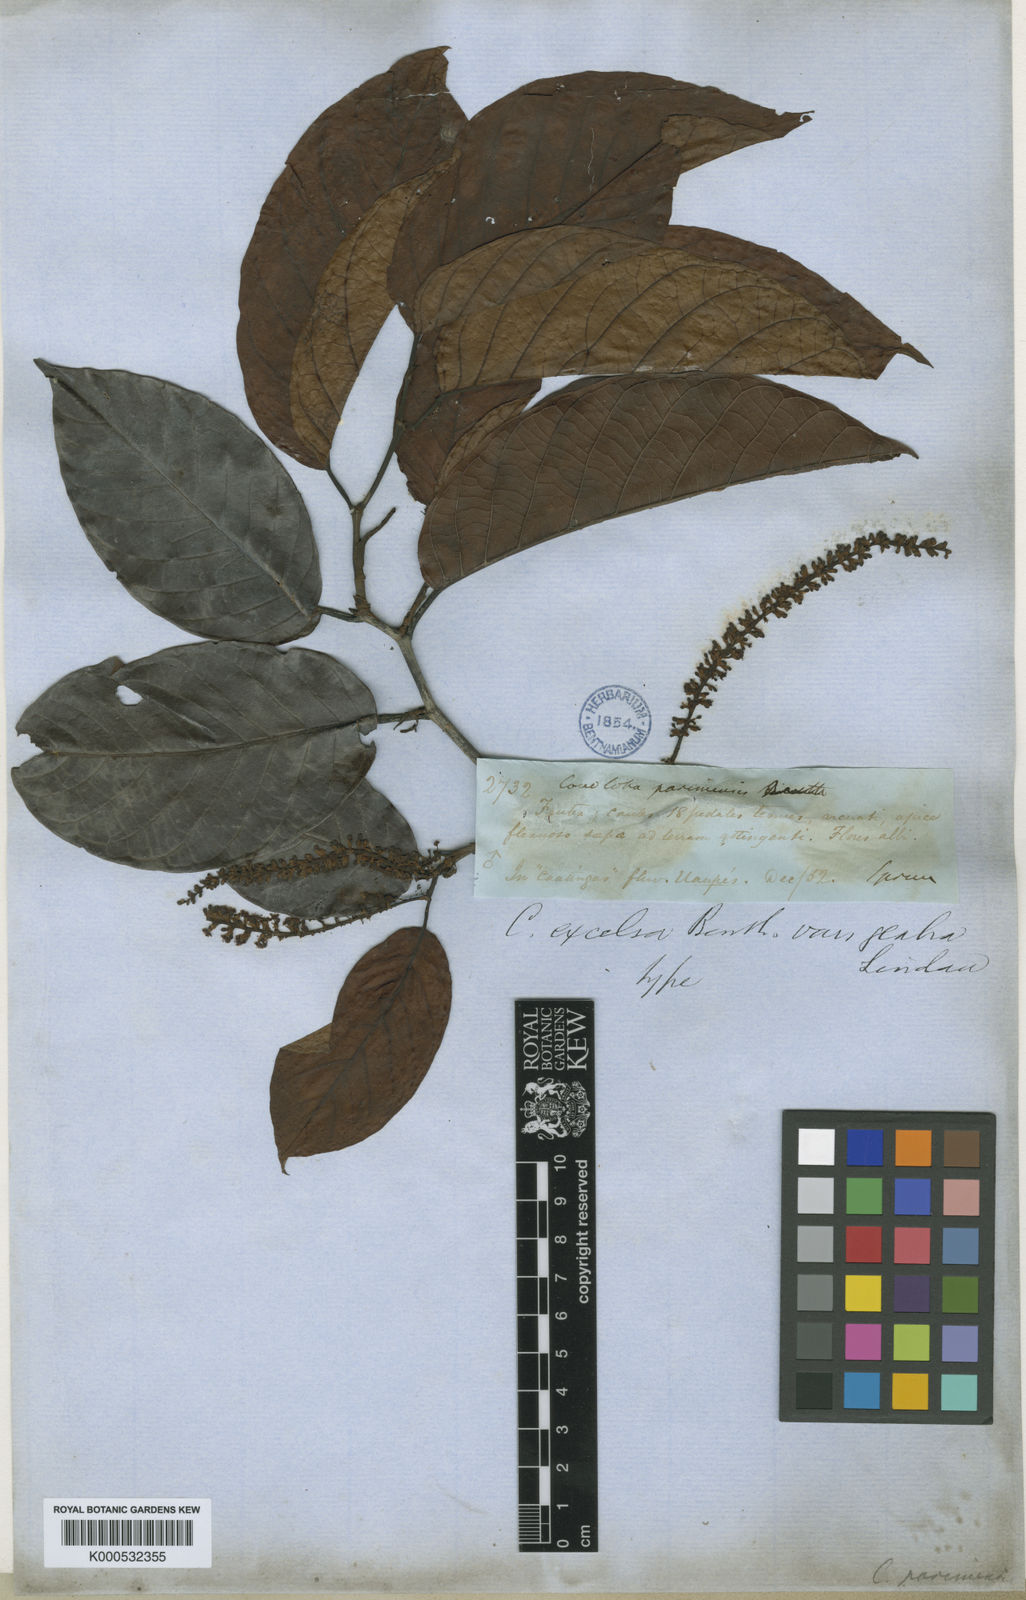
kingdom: Plantae
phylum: Tracheophyta
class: Magnoliopsida
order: Caryophyllales
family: Polygonaceae
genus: Coccoloba
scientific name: Coccoloba excelsa
